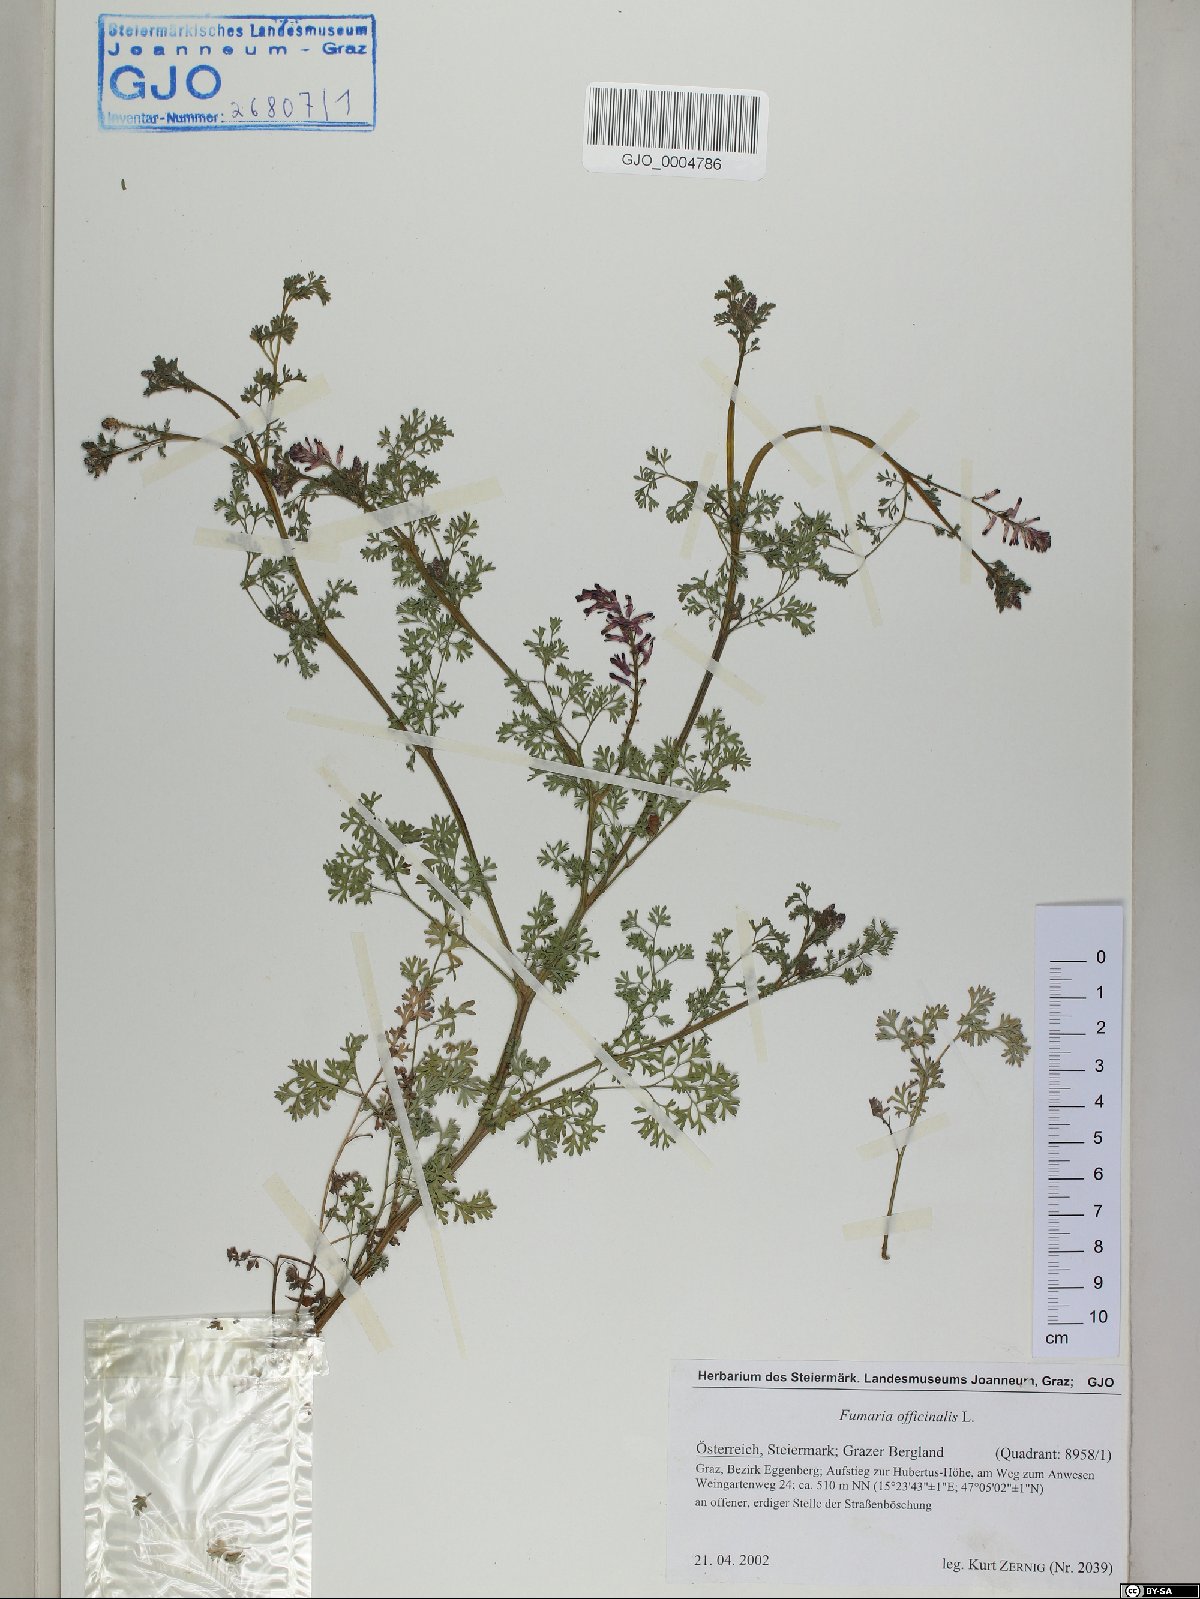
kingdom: Plantae
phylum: Tracheophyta
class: Magnoliopsida
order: Ranunculales
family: Papaveraceae
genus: Fumaria
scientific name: Fumaria officinalis
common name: Common fumitory
